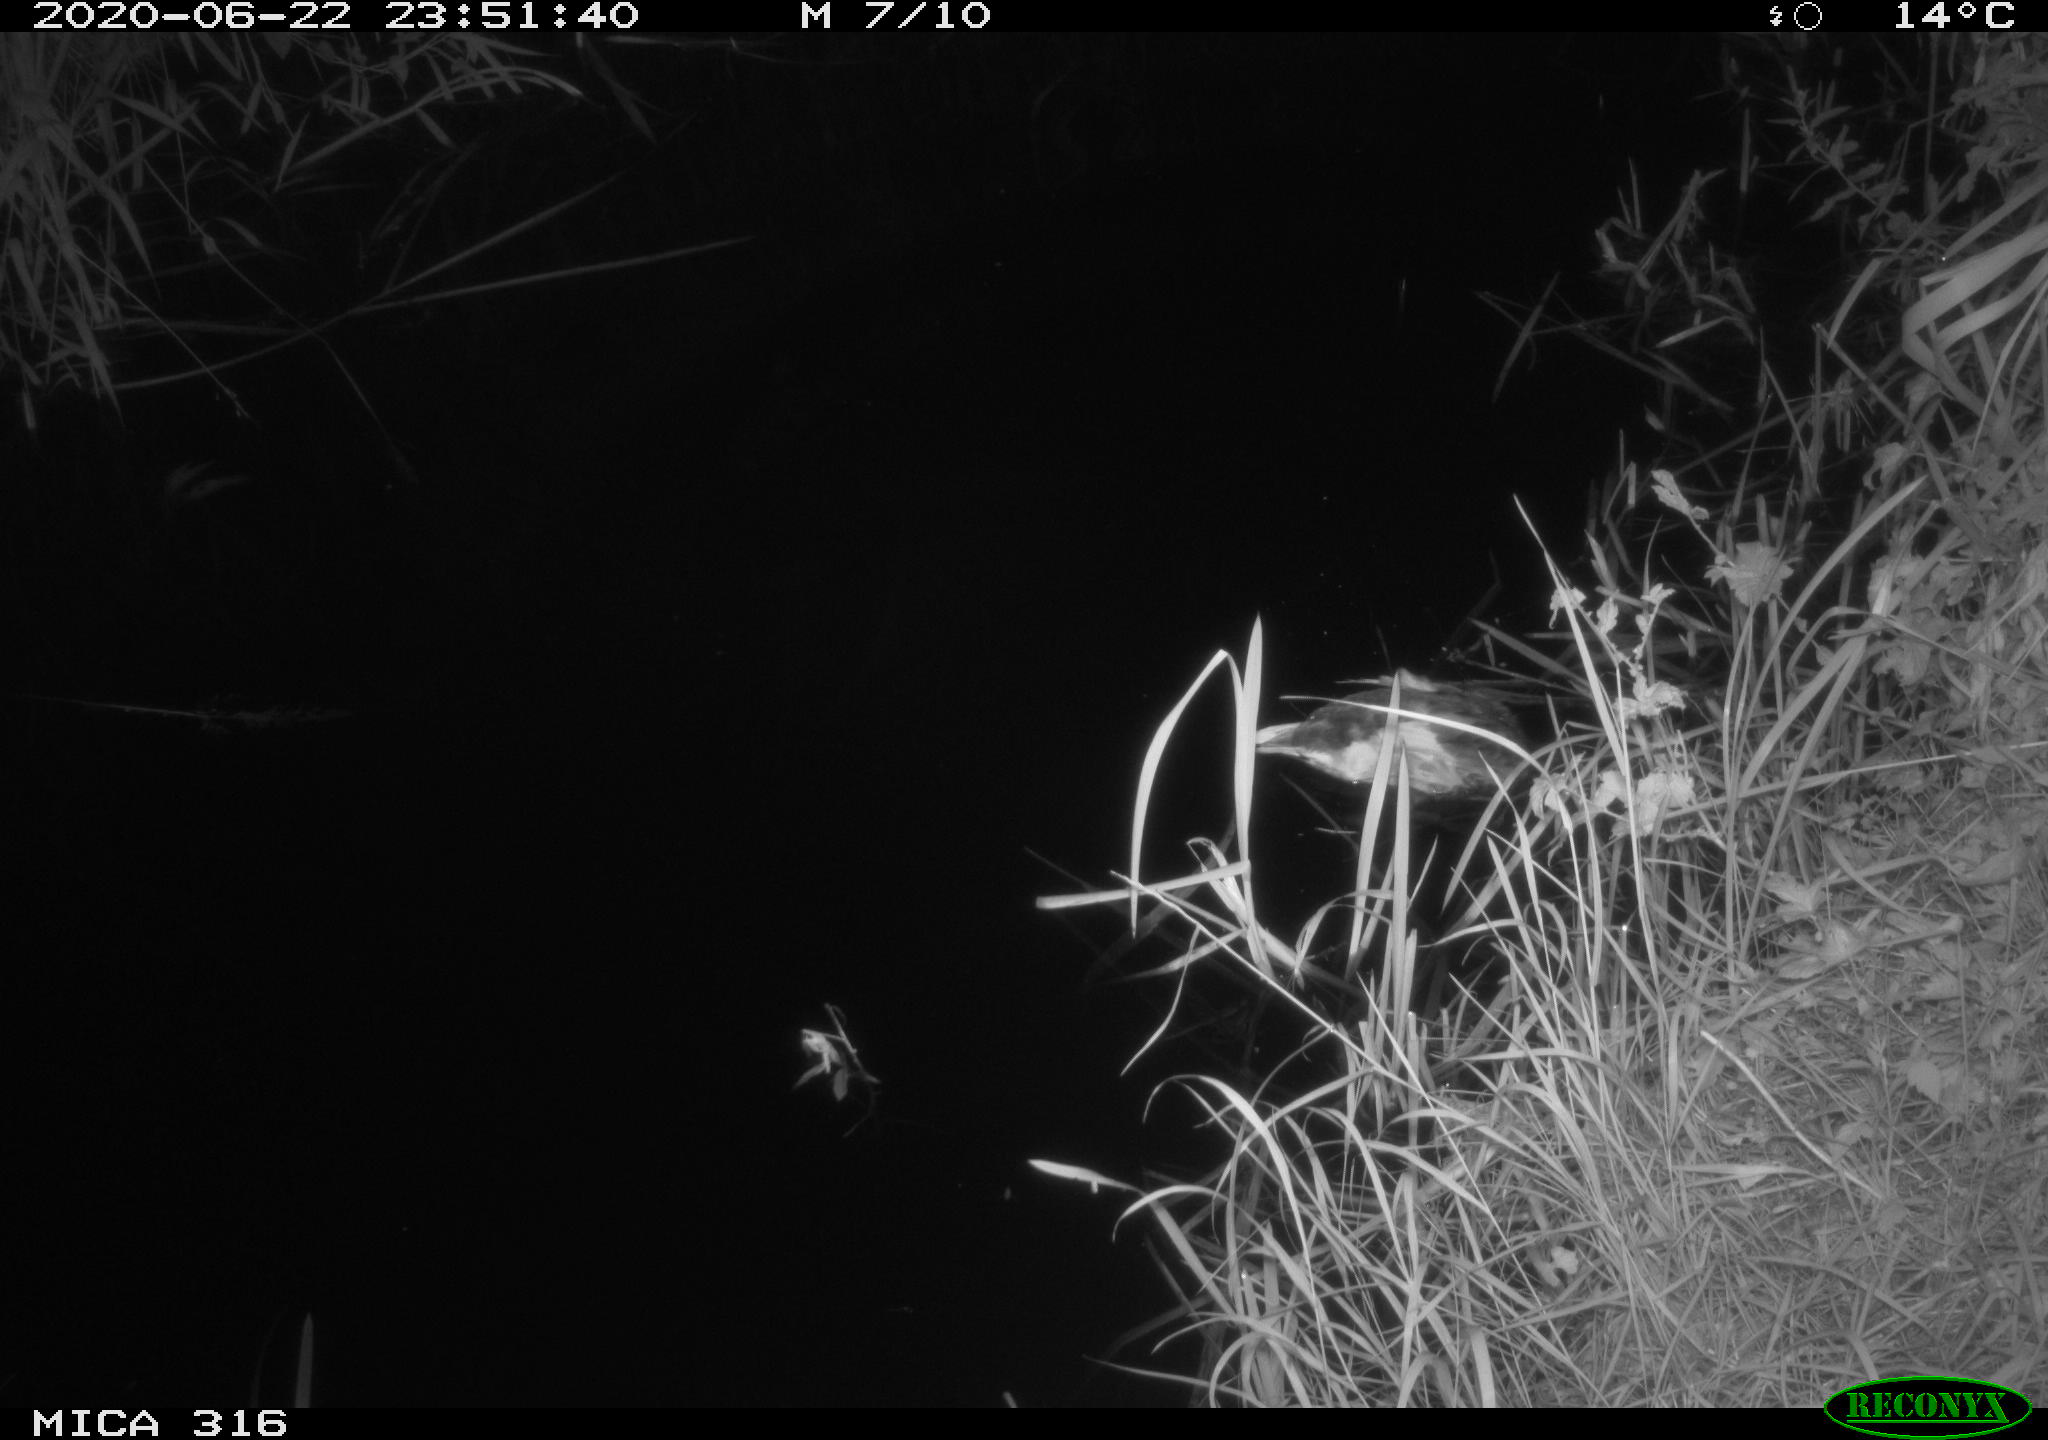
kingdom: Animalia
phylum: Chordata
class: Aves
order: Anseriformes
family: Anatidae
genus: Anas
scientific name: Anas platyrhynchos
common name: Mallard
